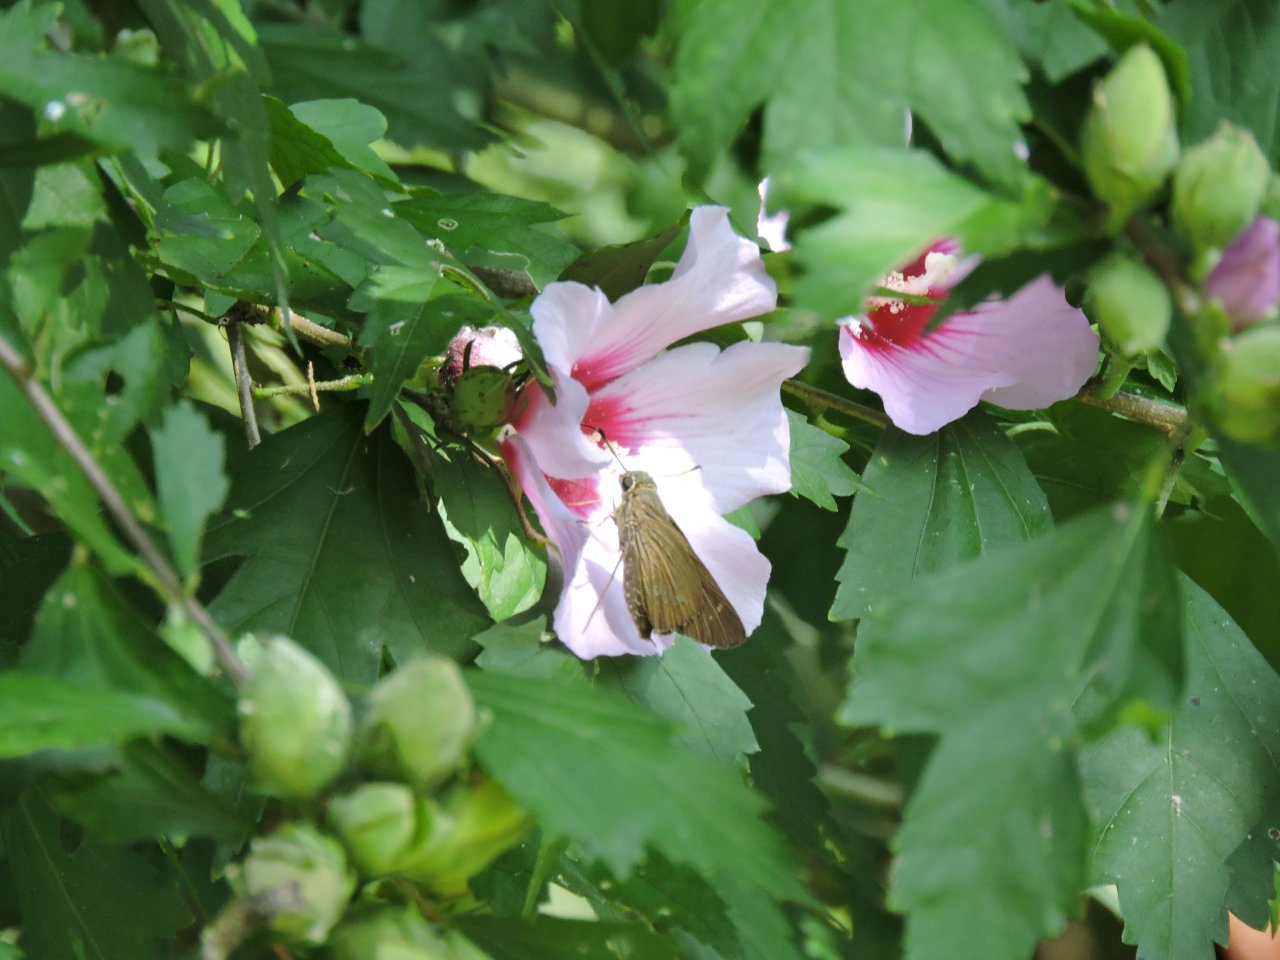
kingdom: Animalia
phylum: Arthropoda
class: Insecta
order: Lepidoptera
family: Hesperiidae
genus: Calpodes
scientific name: Calpodes ethlius
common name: Brazilian Skipper
